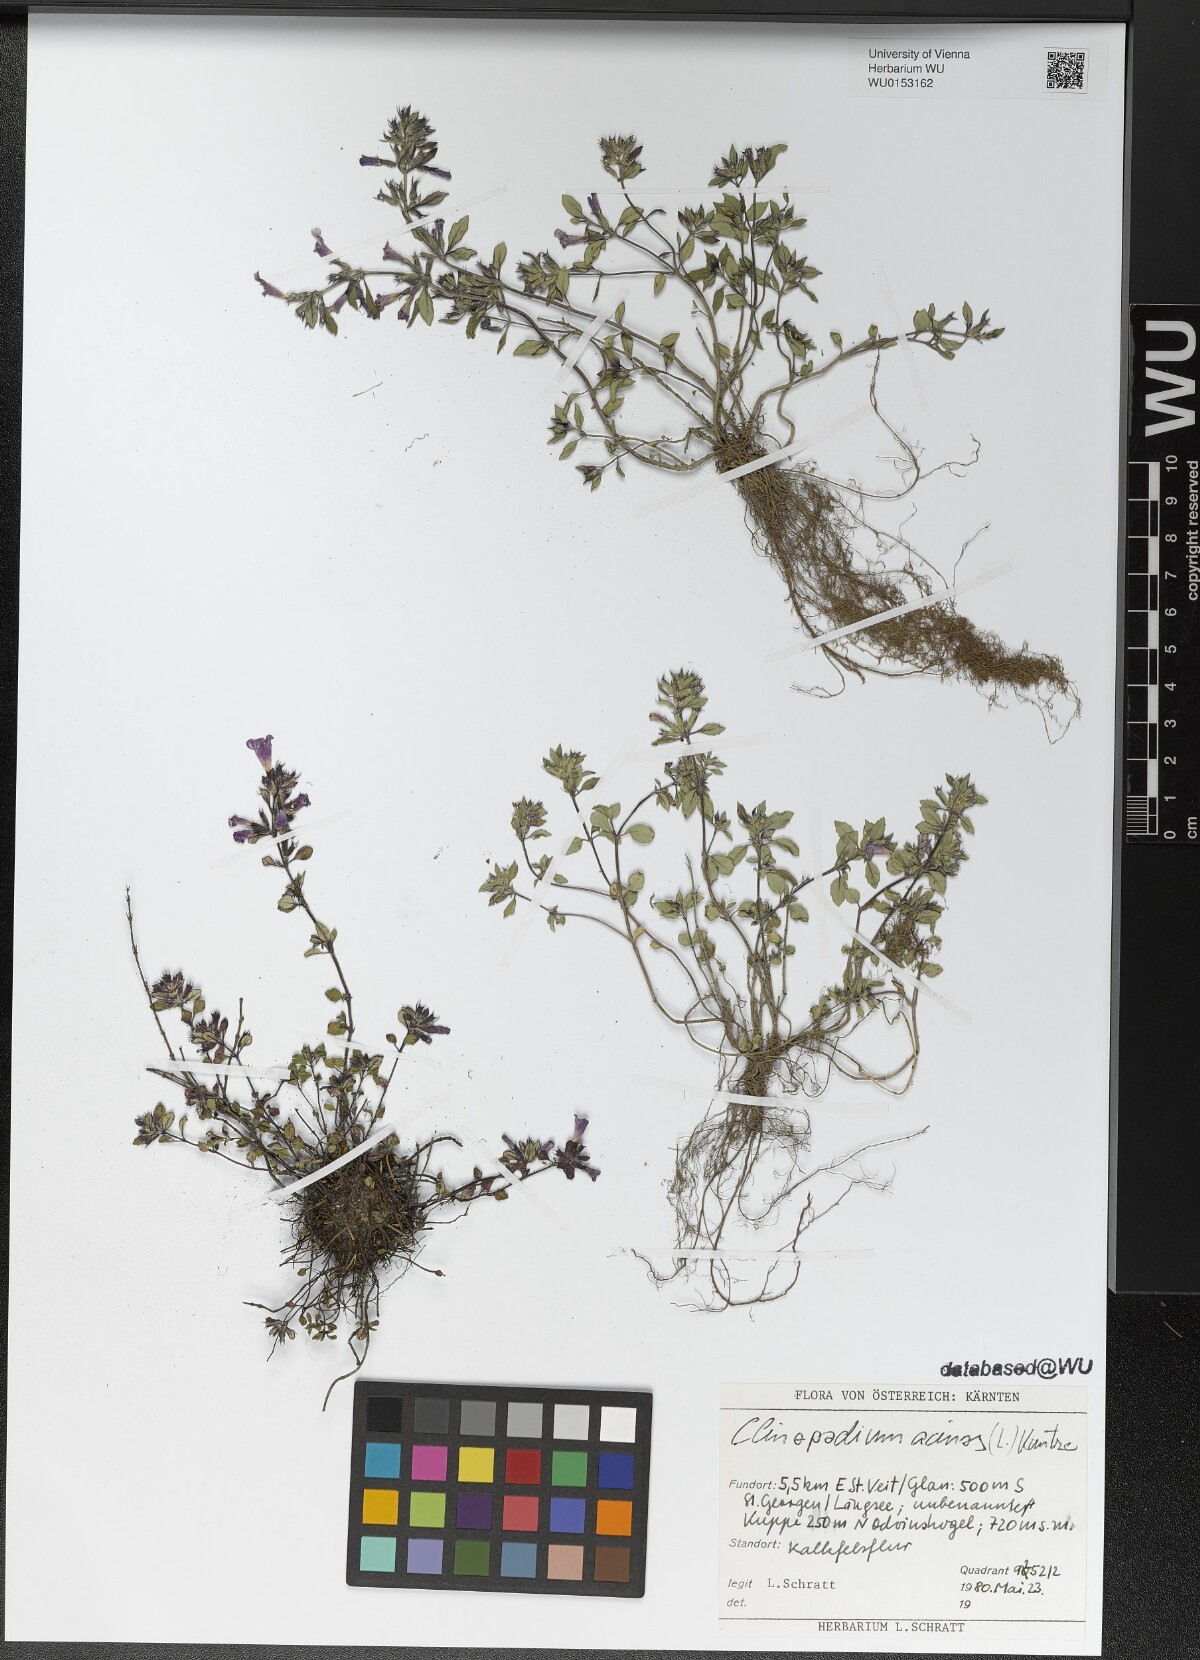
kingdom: Plantae
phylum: Tracheophyta
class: Magnoliopsida
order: Lamiales
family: Lamiaceae
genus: Clinopodium
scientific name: Clinopodium acinos
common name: Basil thyme
